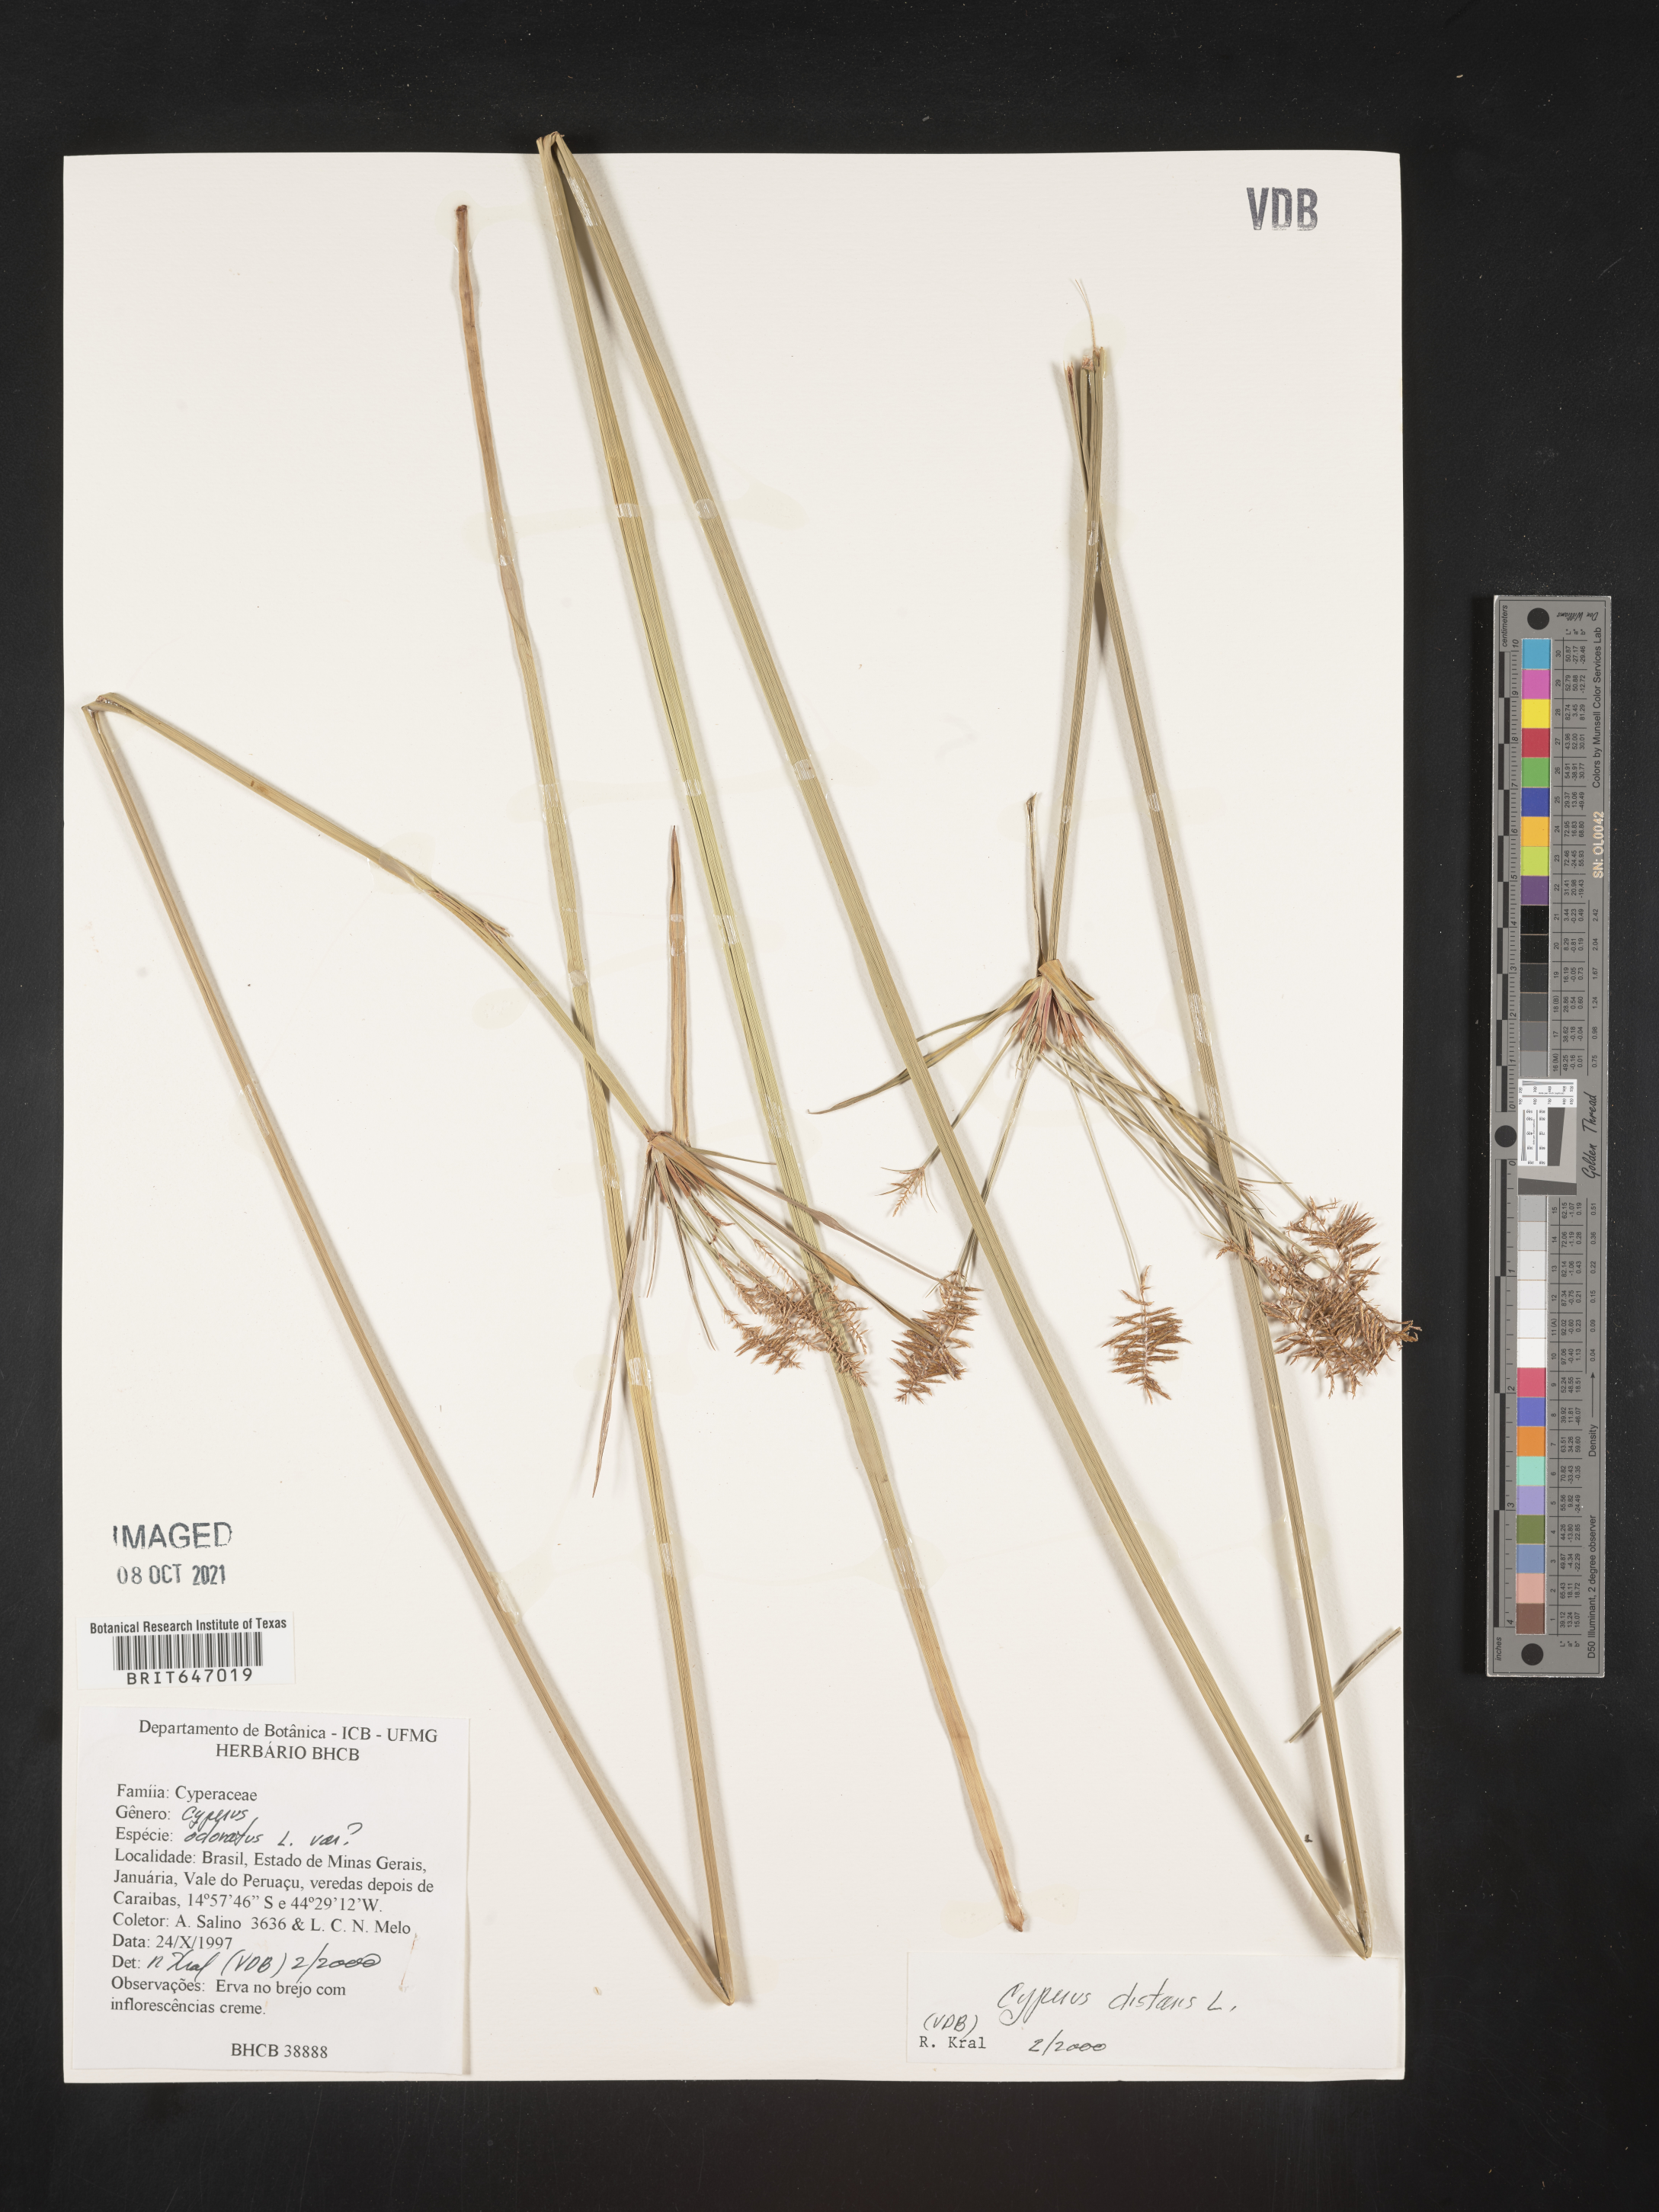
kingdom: Plantae
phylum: Tracheophyta
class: Liliopsida
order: Poales
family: Cyperaceae
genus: Cyperus
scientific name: Cyperus distans
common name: Slender cyperus
